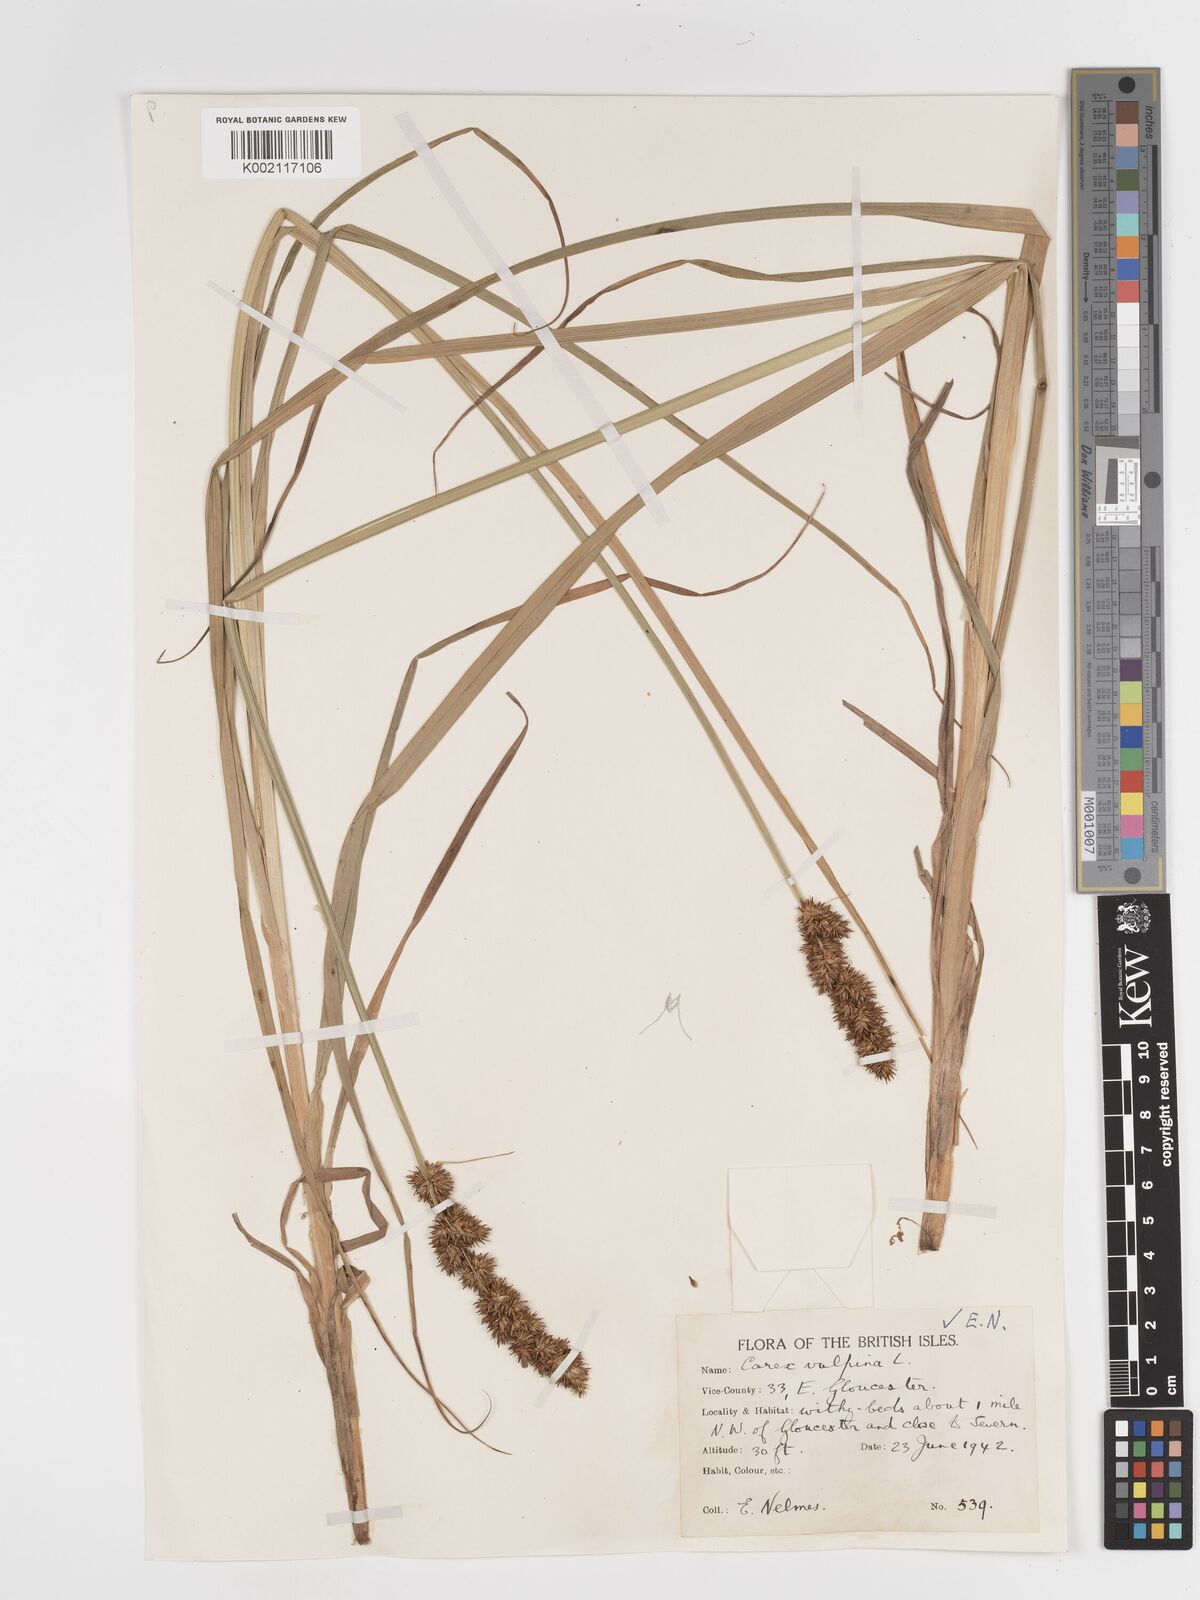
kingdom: Plantae
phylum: Tracheophyta
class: Liliopsida
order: Poales
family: Cyperaceae
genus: Carex
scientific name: Carex vulpina
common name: True fox-sedge
